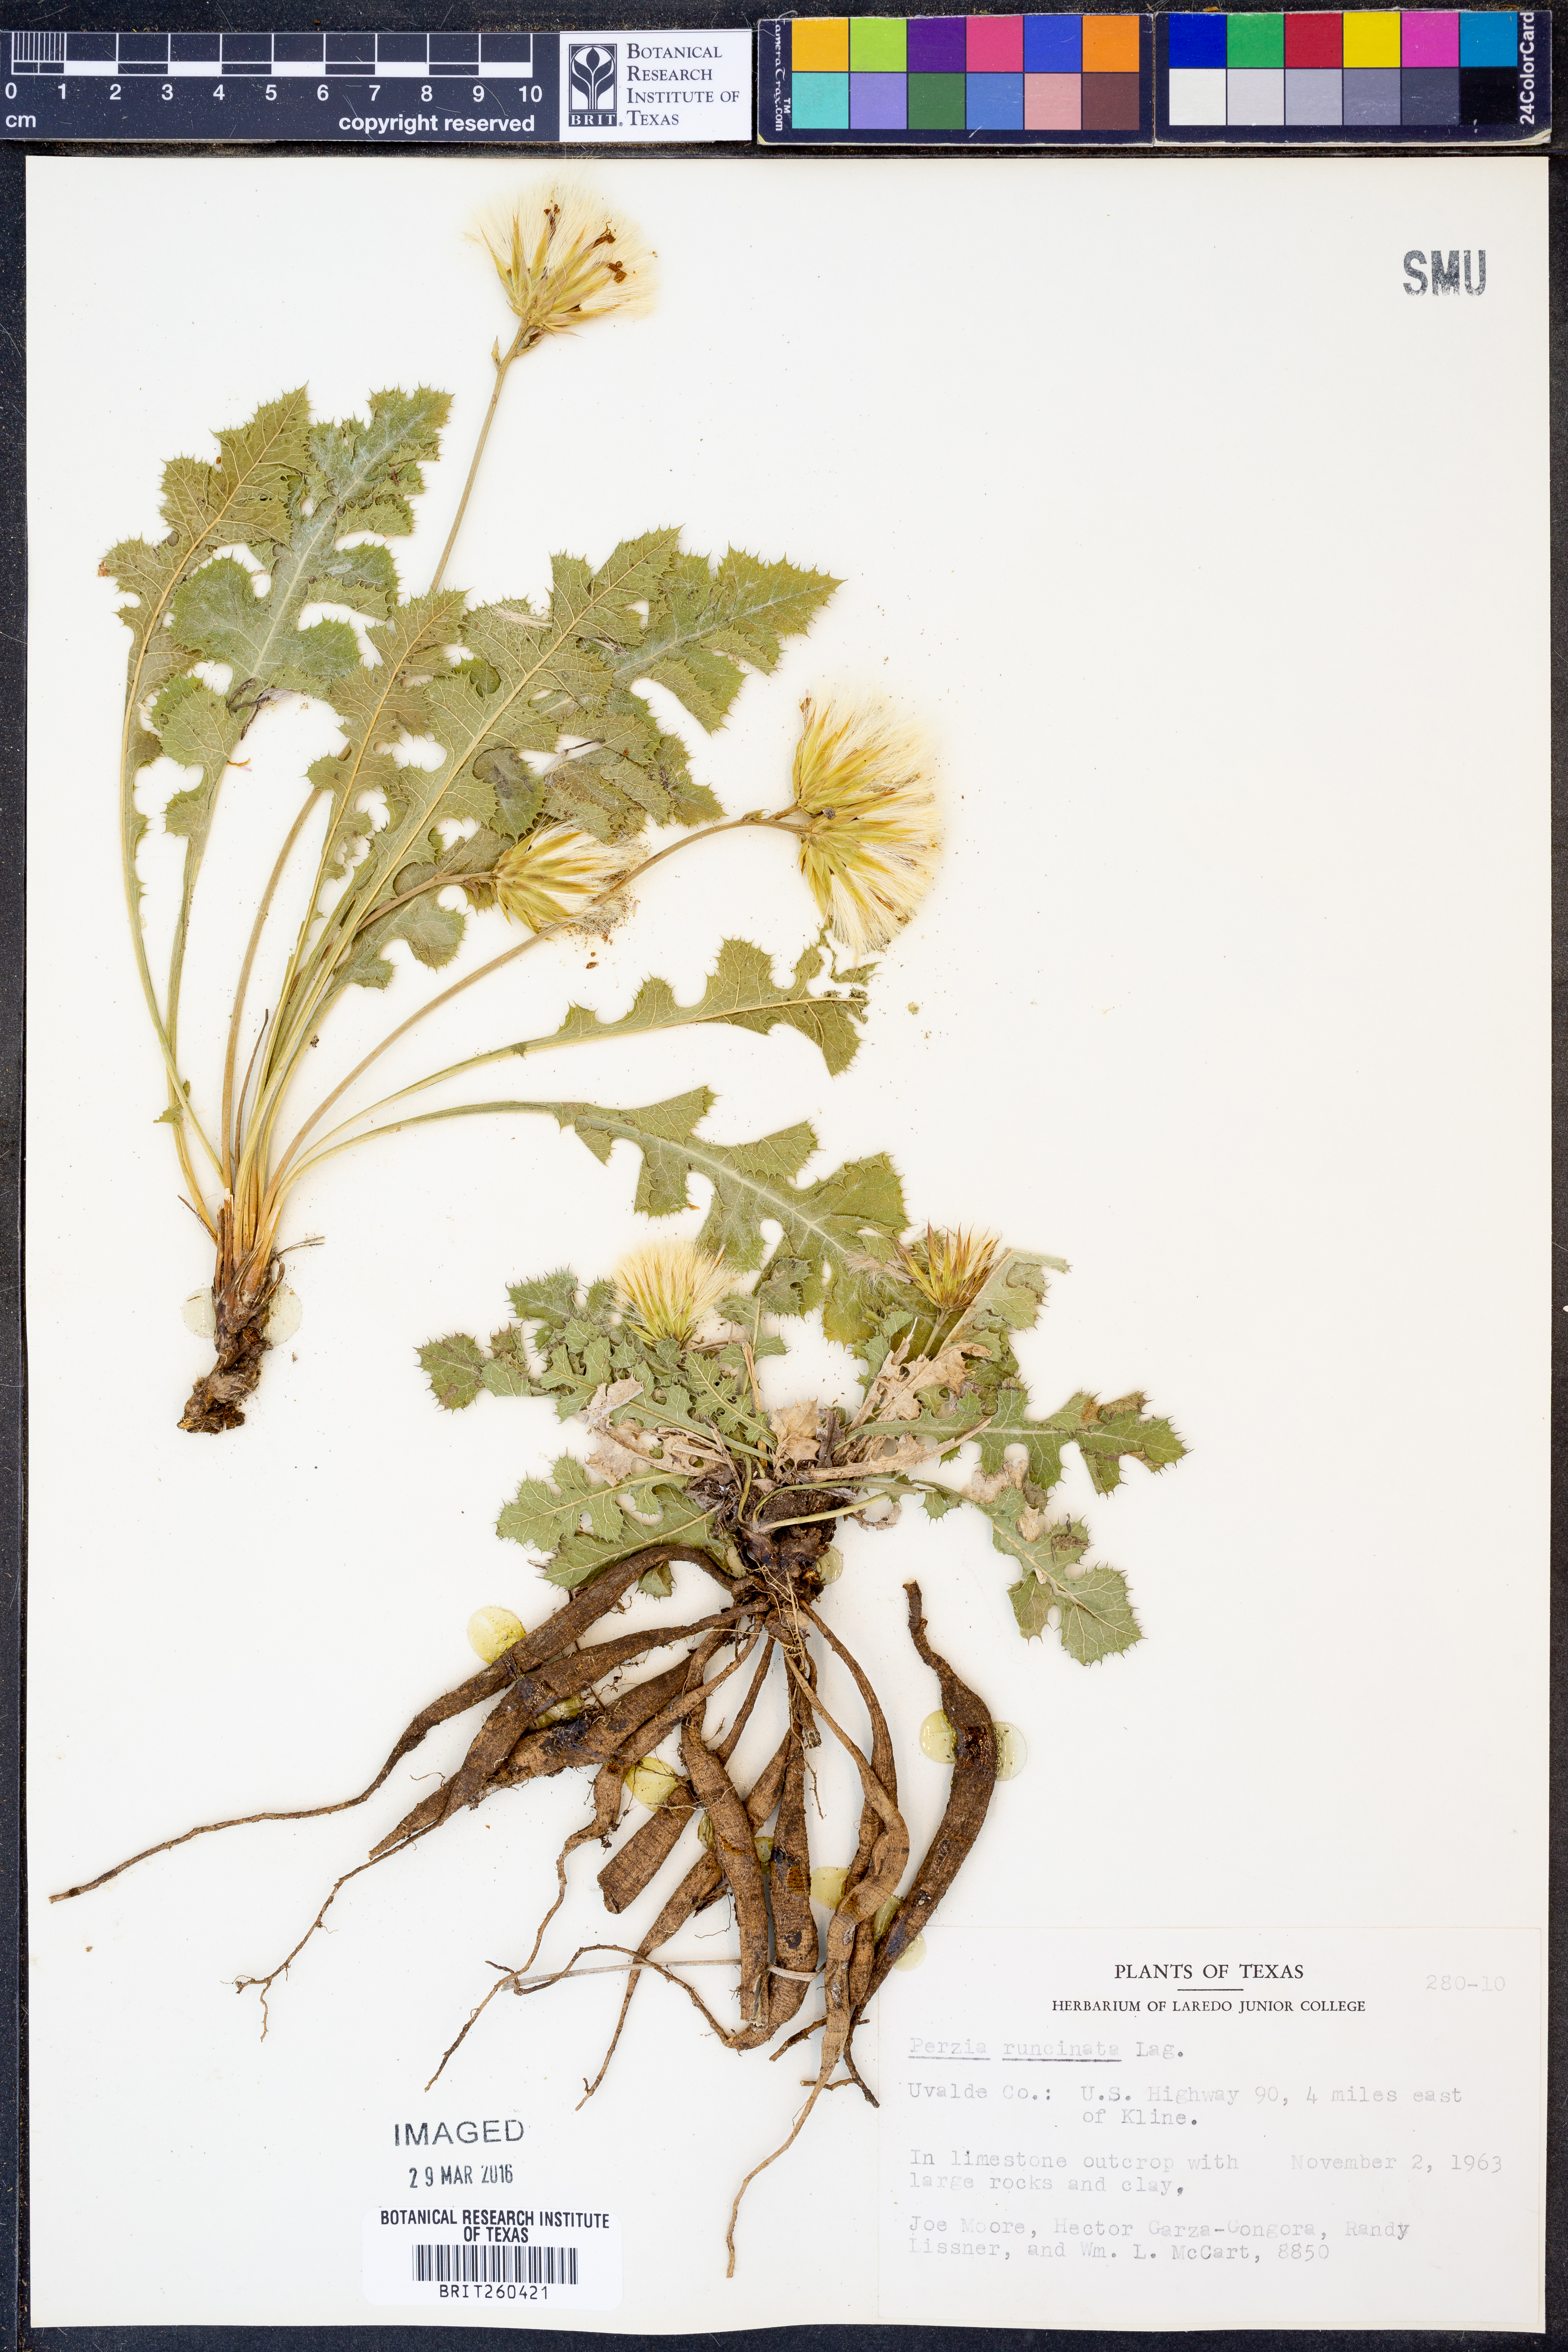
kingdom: Plantae
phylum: Tracheophyta
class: Magnoliopsida
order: Asterales
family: Asteraceae
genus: Acourtia
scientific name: Acourtia runcinata
